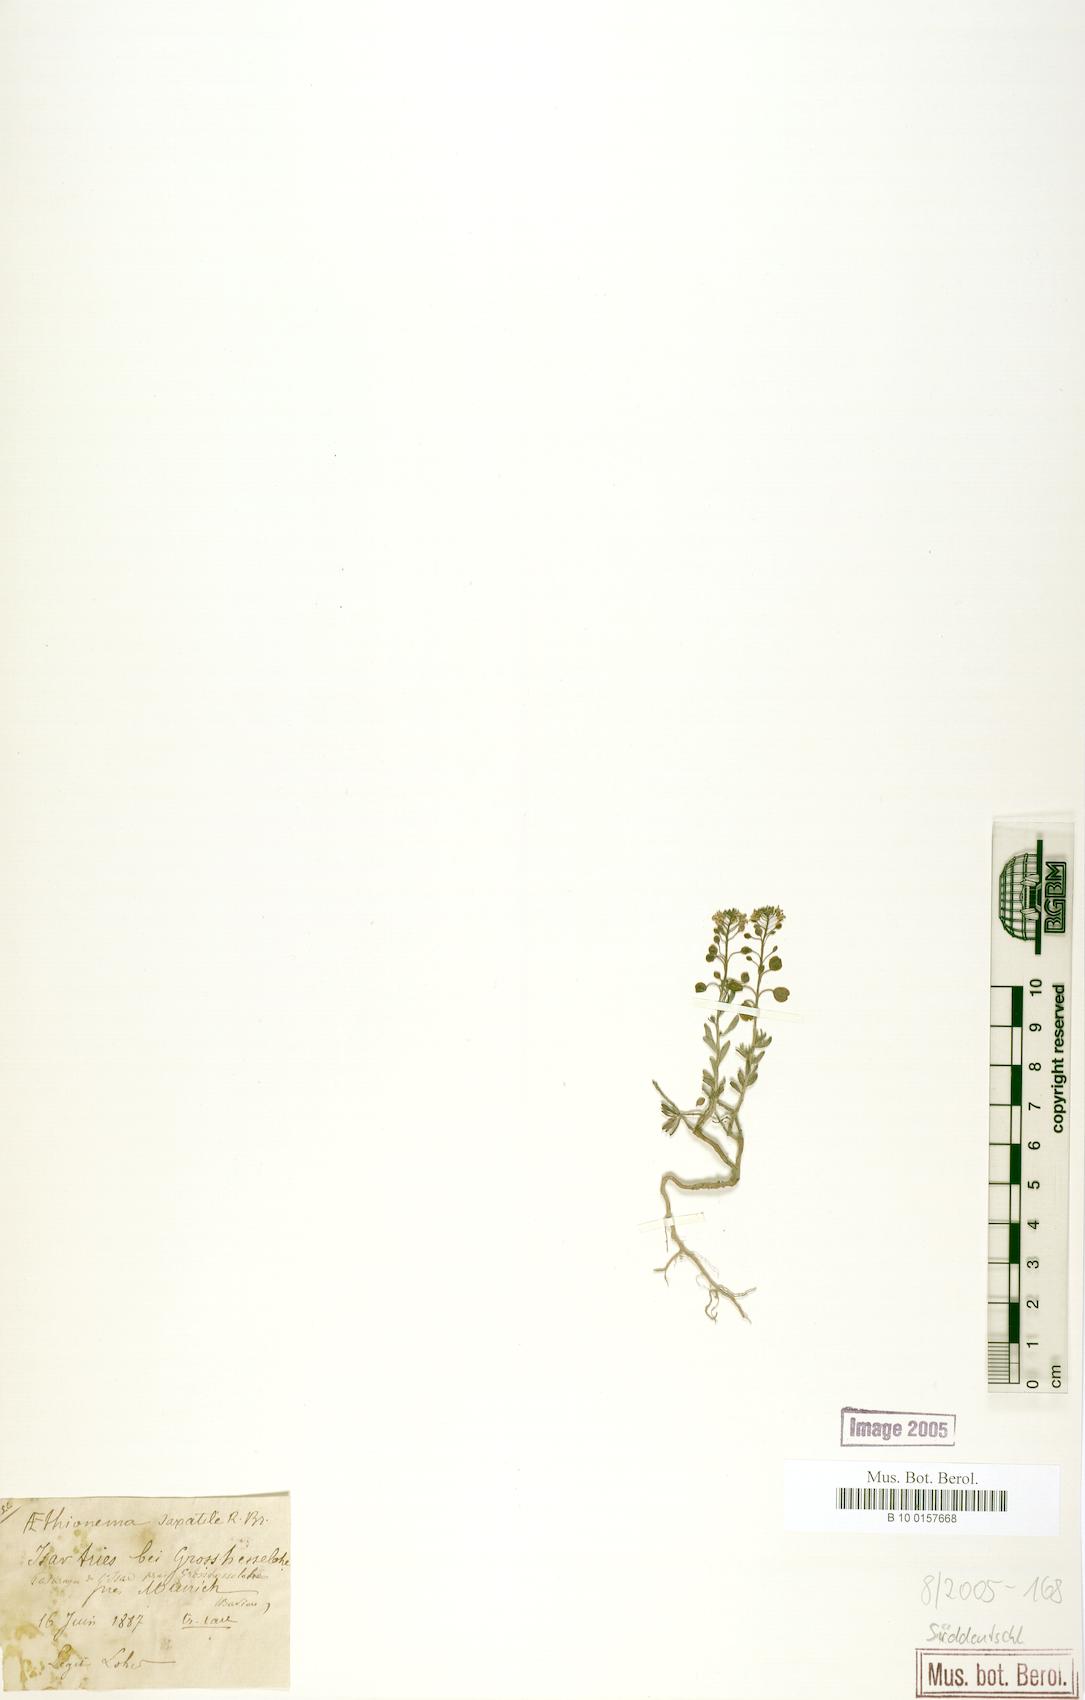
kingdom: Plantae
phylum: Tracheophyta
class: Magnoliopsida
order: Brassicales
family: Brassicaceae
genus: Aethionema
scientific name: Aethionema saxatile
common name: Burnt candytuft
